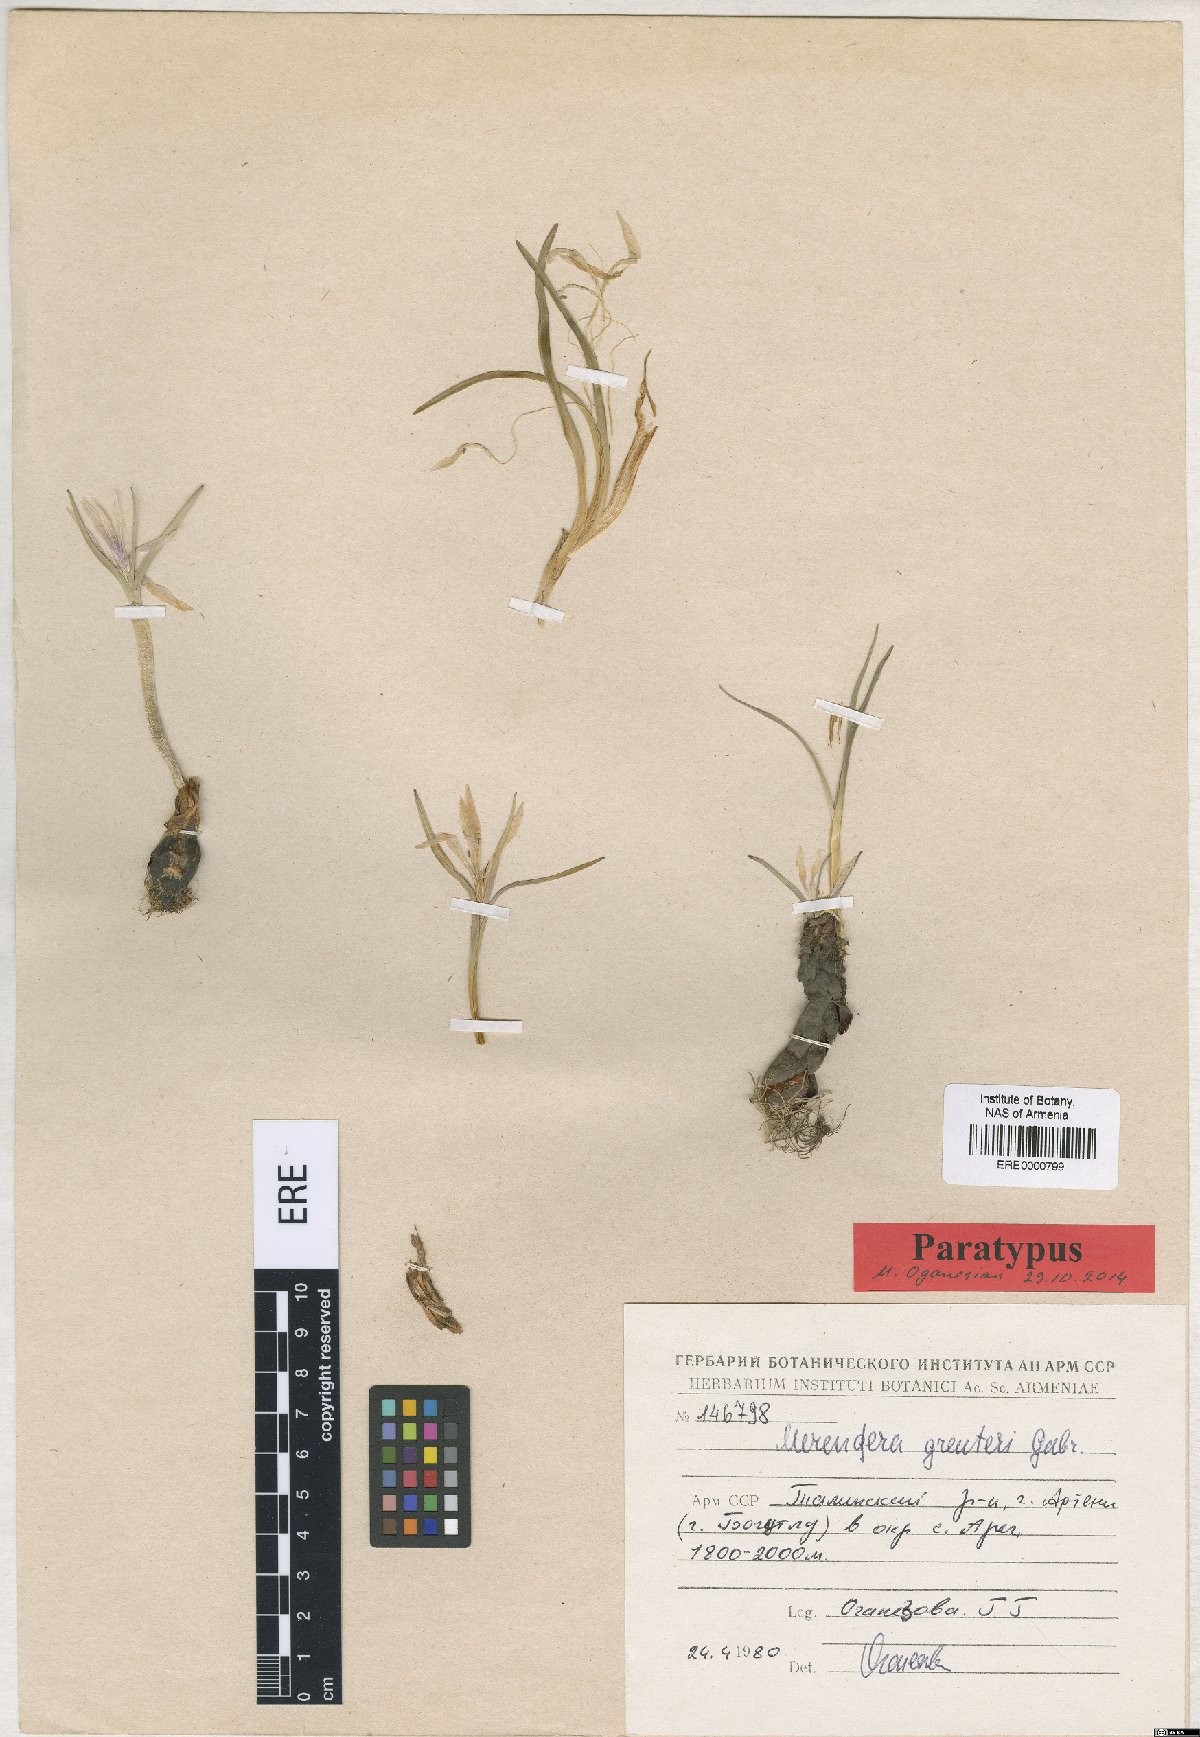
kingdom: Plantae
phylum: Tracheophyta
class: Liliopsida
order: Liliales
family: Colchicaceae
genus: Colchicum
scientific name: Colchicum trigynum
